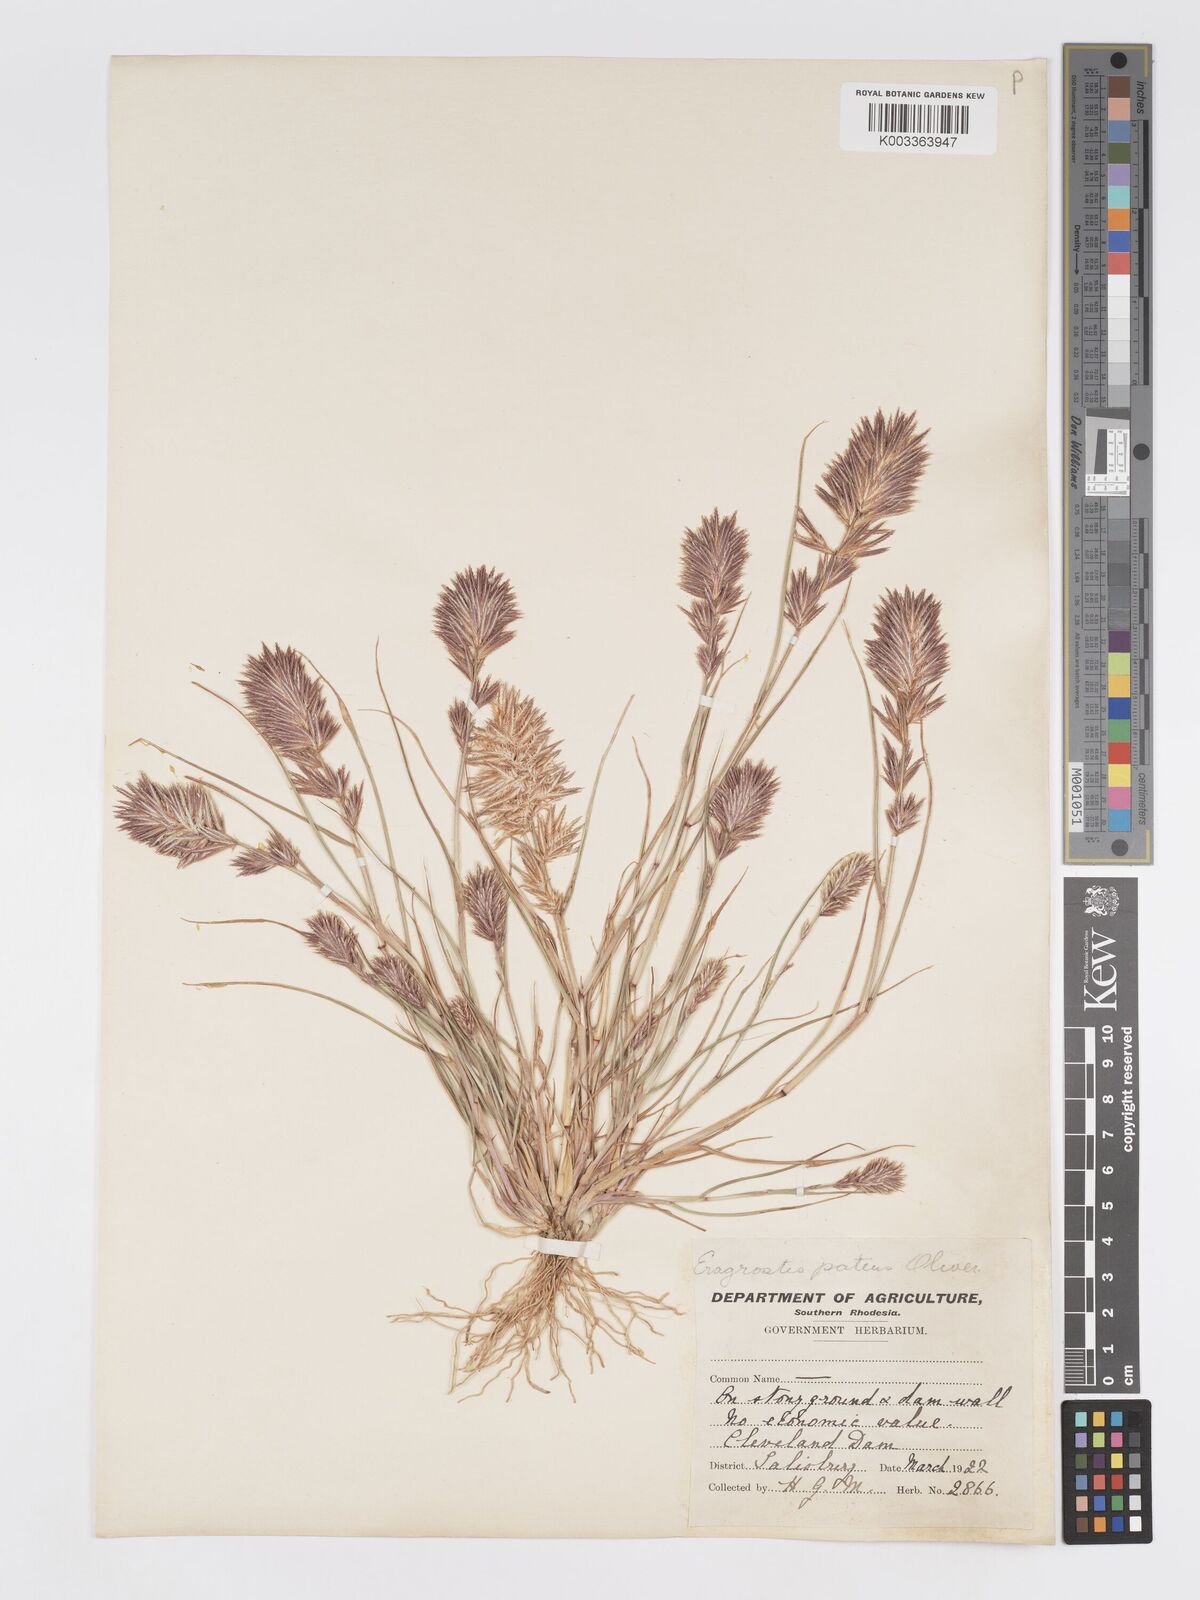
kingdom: Plantae
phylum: Tracheophyta
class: Liliopsida
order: Poales
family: Poaceae
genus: Eragrostis
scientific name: Eragrostis patens
